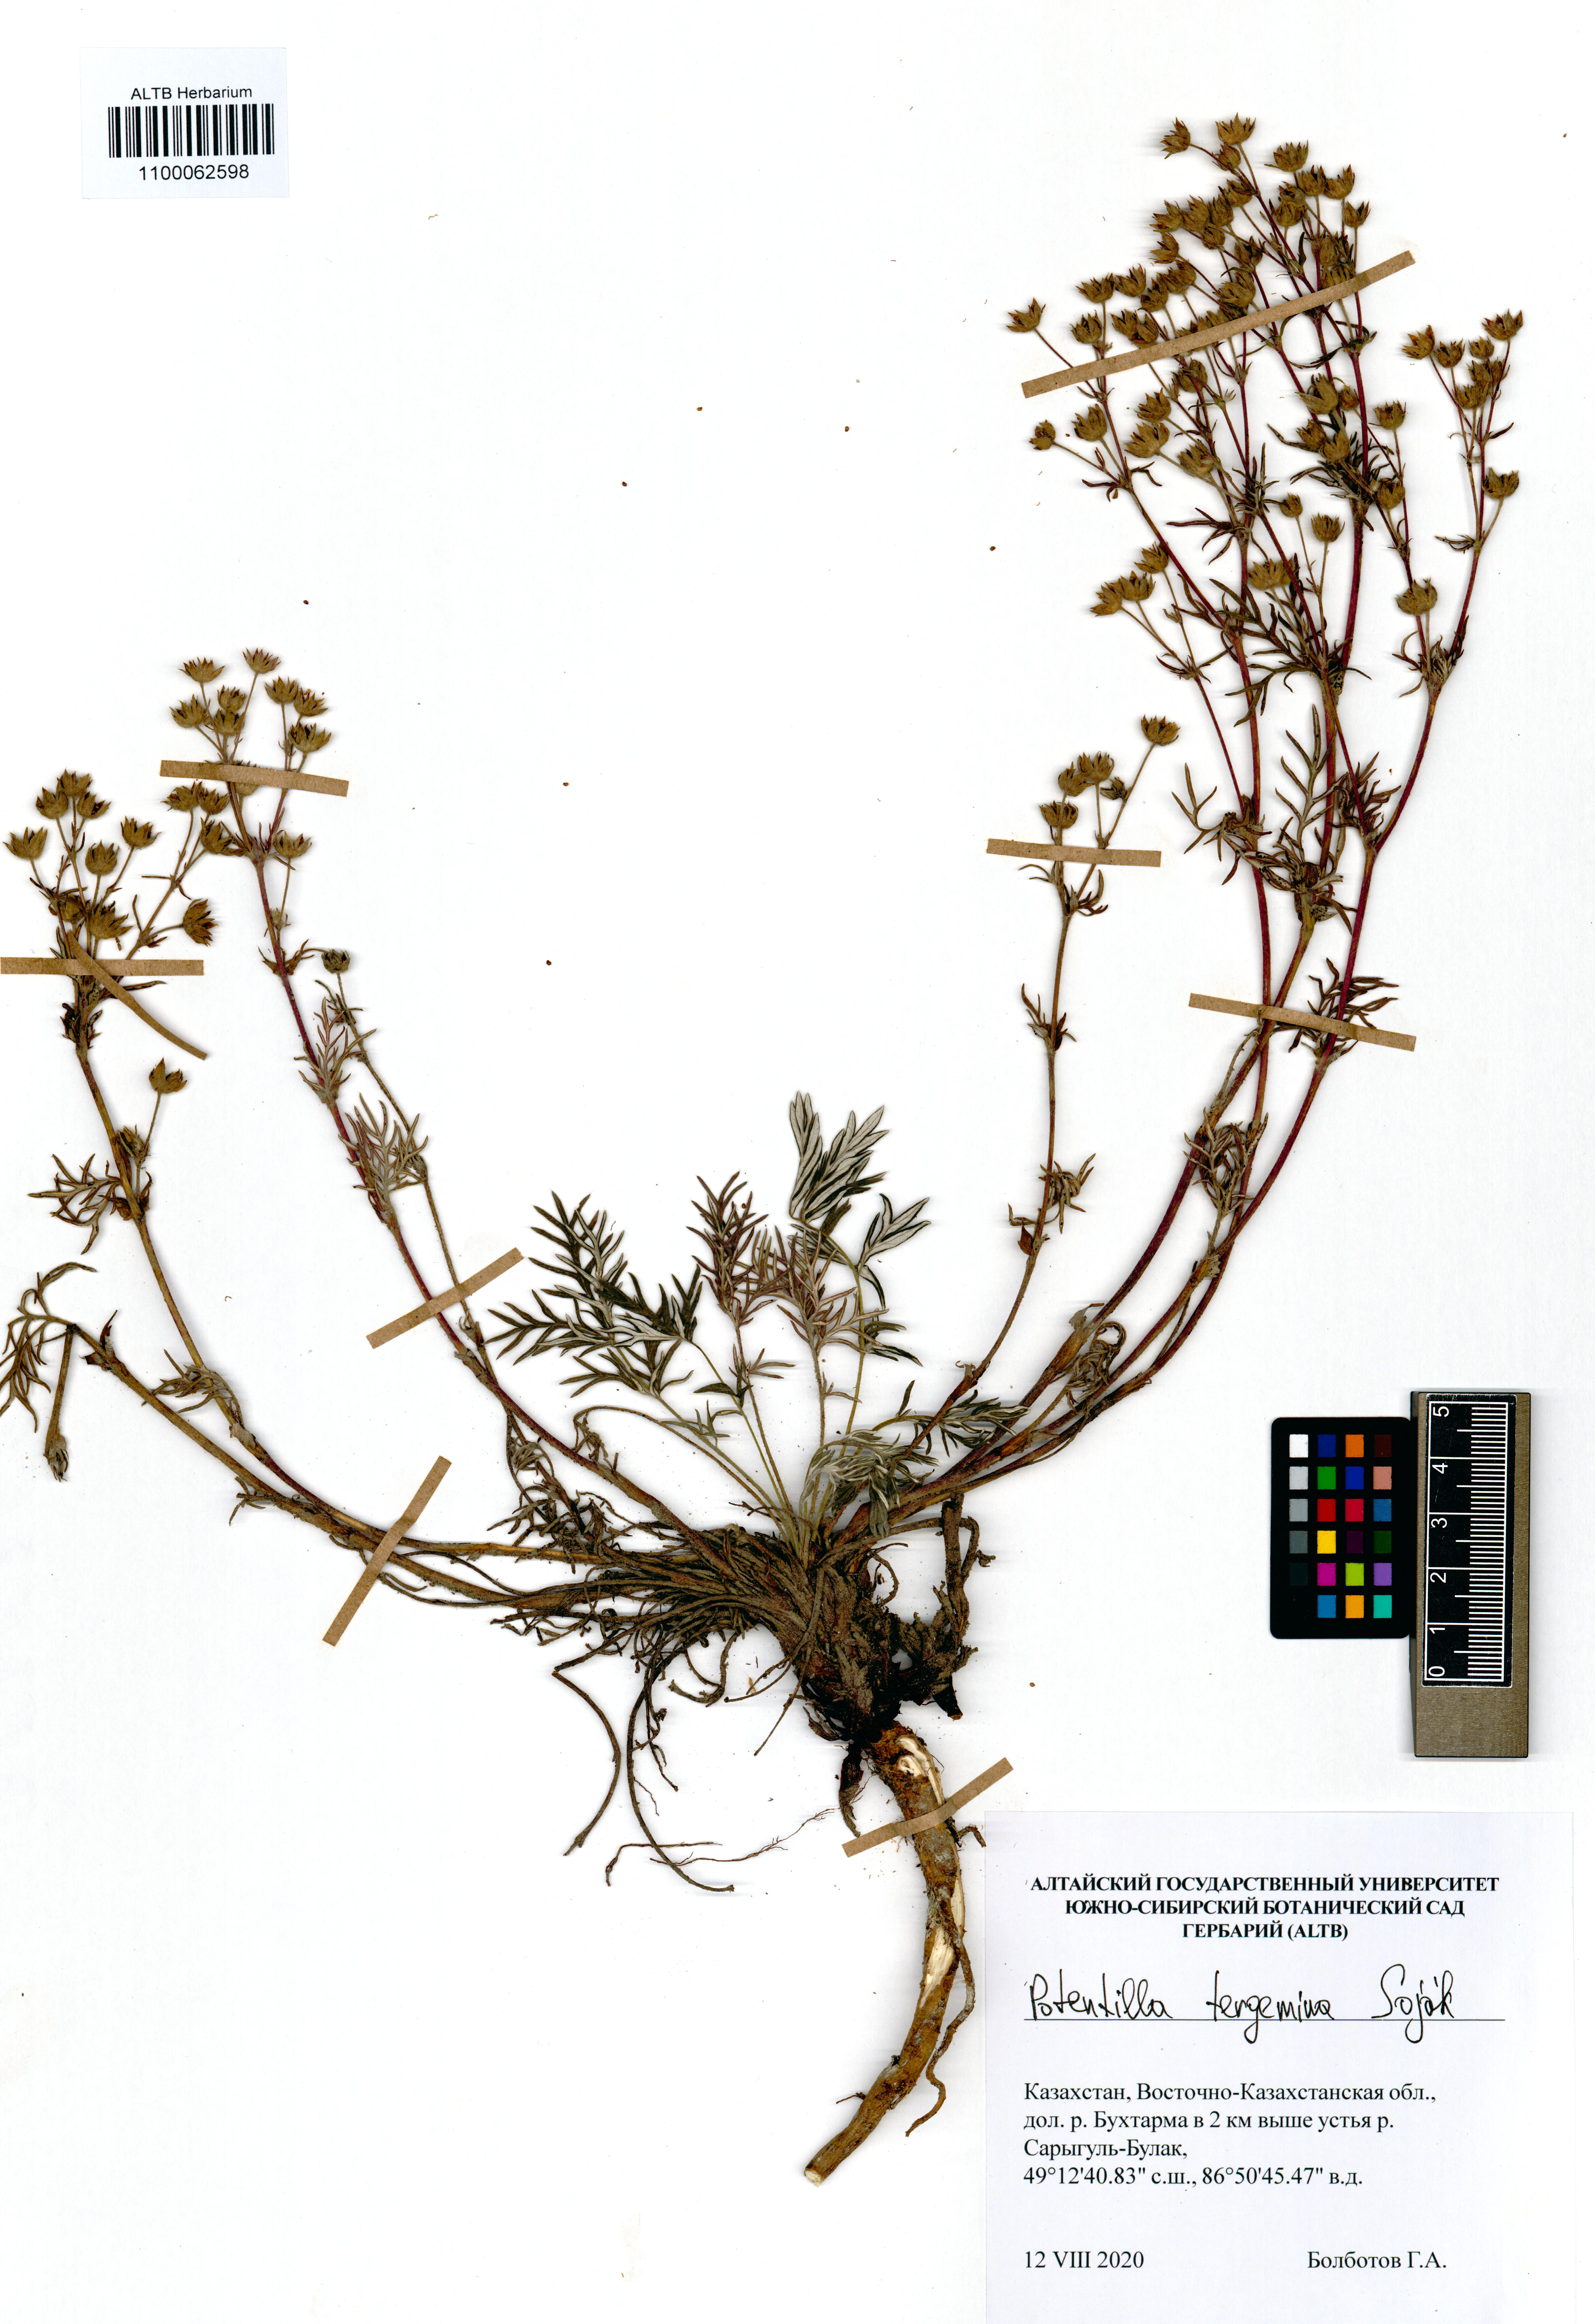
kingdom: Plantae
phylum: Tracheophyta
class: Magnoliopsida
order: Rosales
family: Rosaceae
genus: Potentilla
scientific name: Potentilla tergemina
